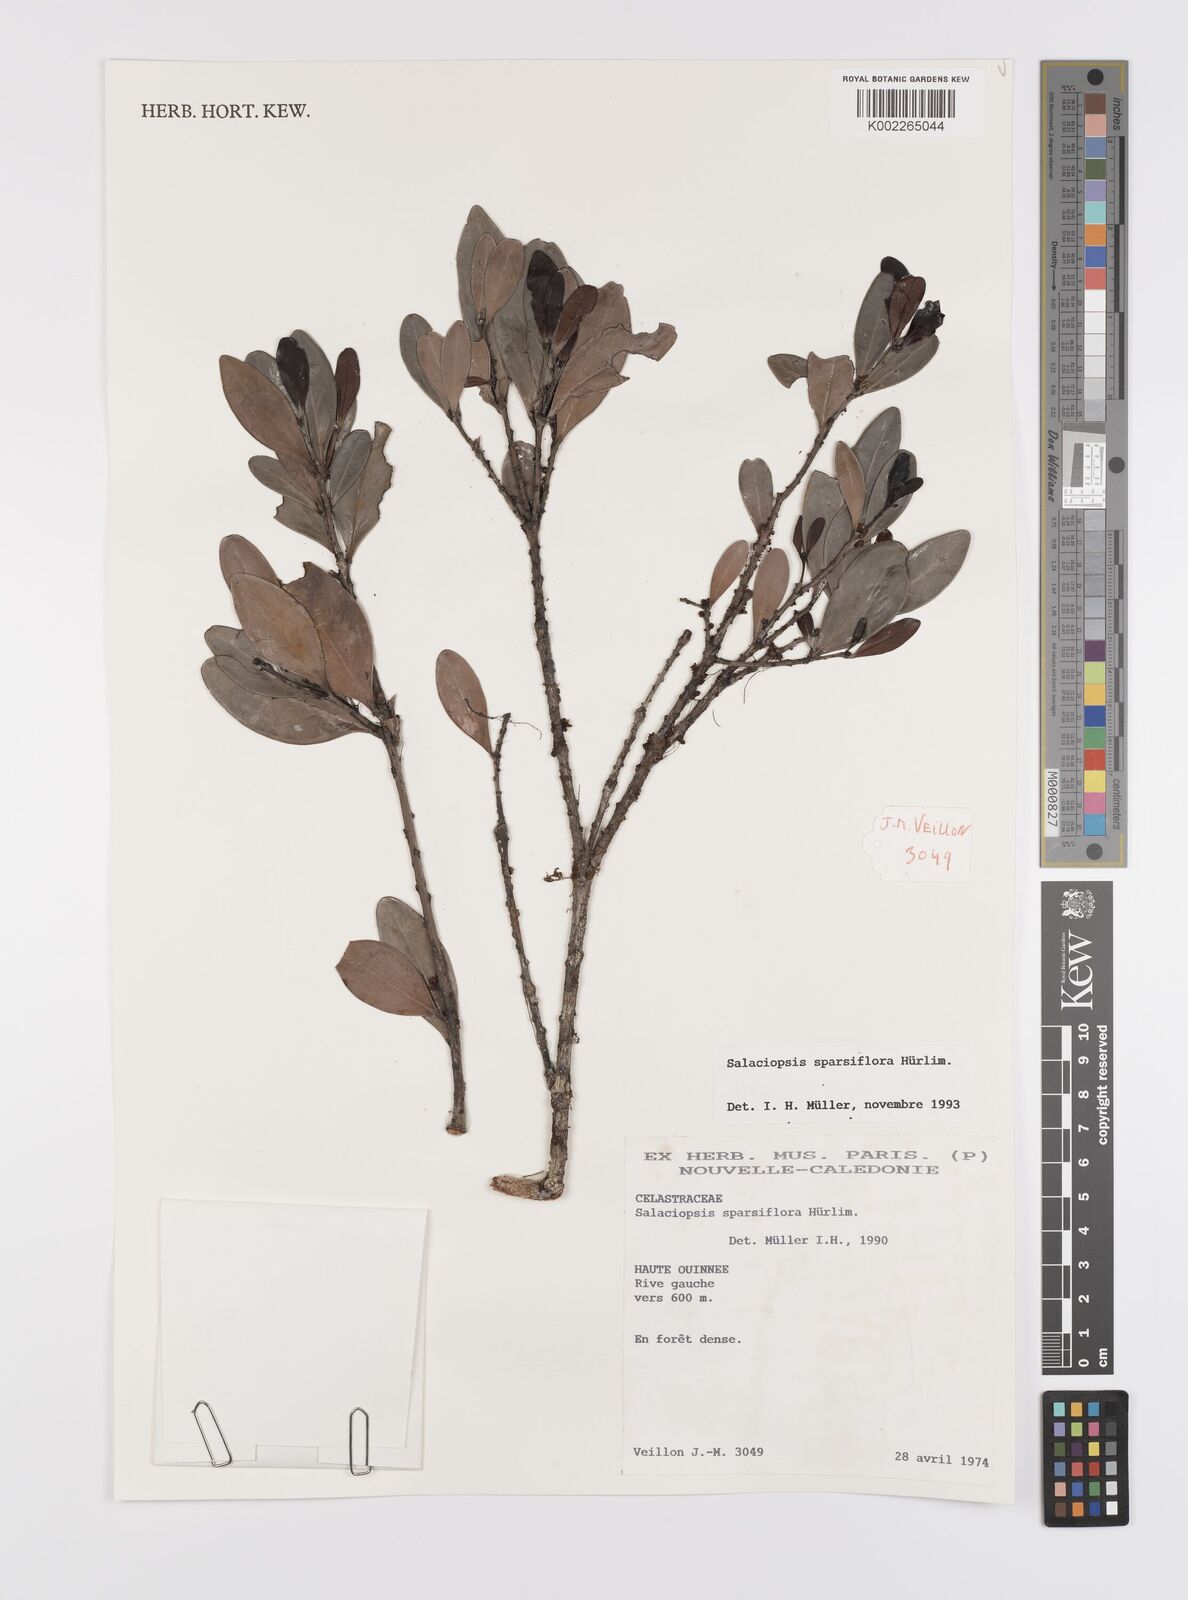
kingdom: Plantae
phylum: Tracheophyta
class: Magnoliopsida
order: Celastrales
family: Celastraceae
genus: Salaciopsis
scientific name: Salaciopsis sparsiflora
